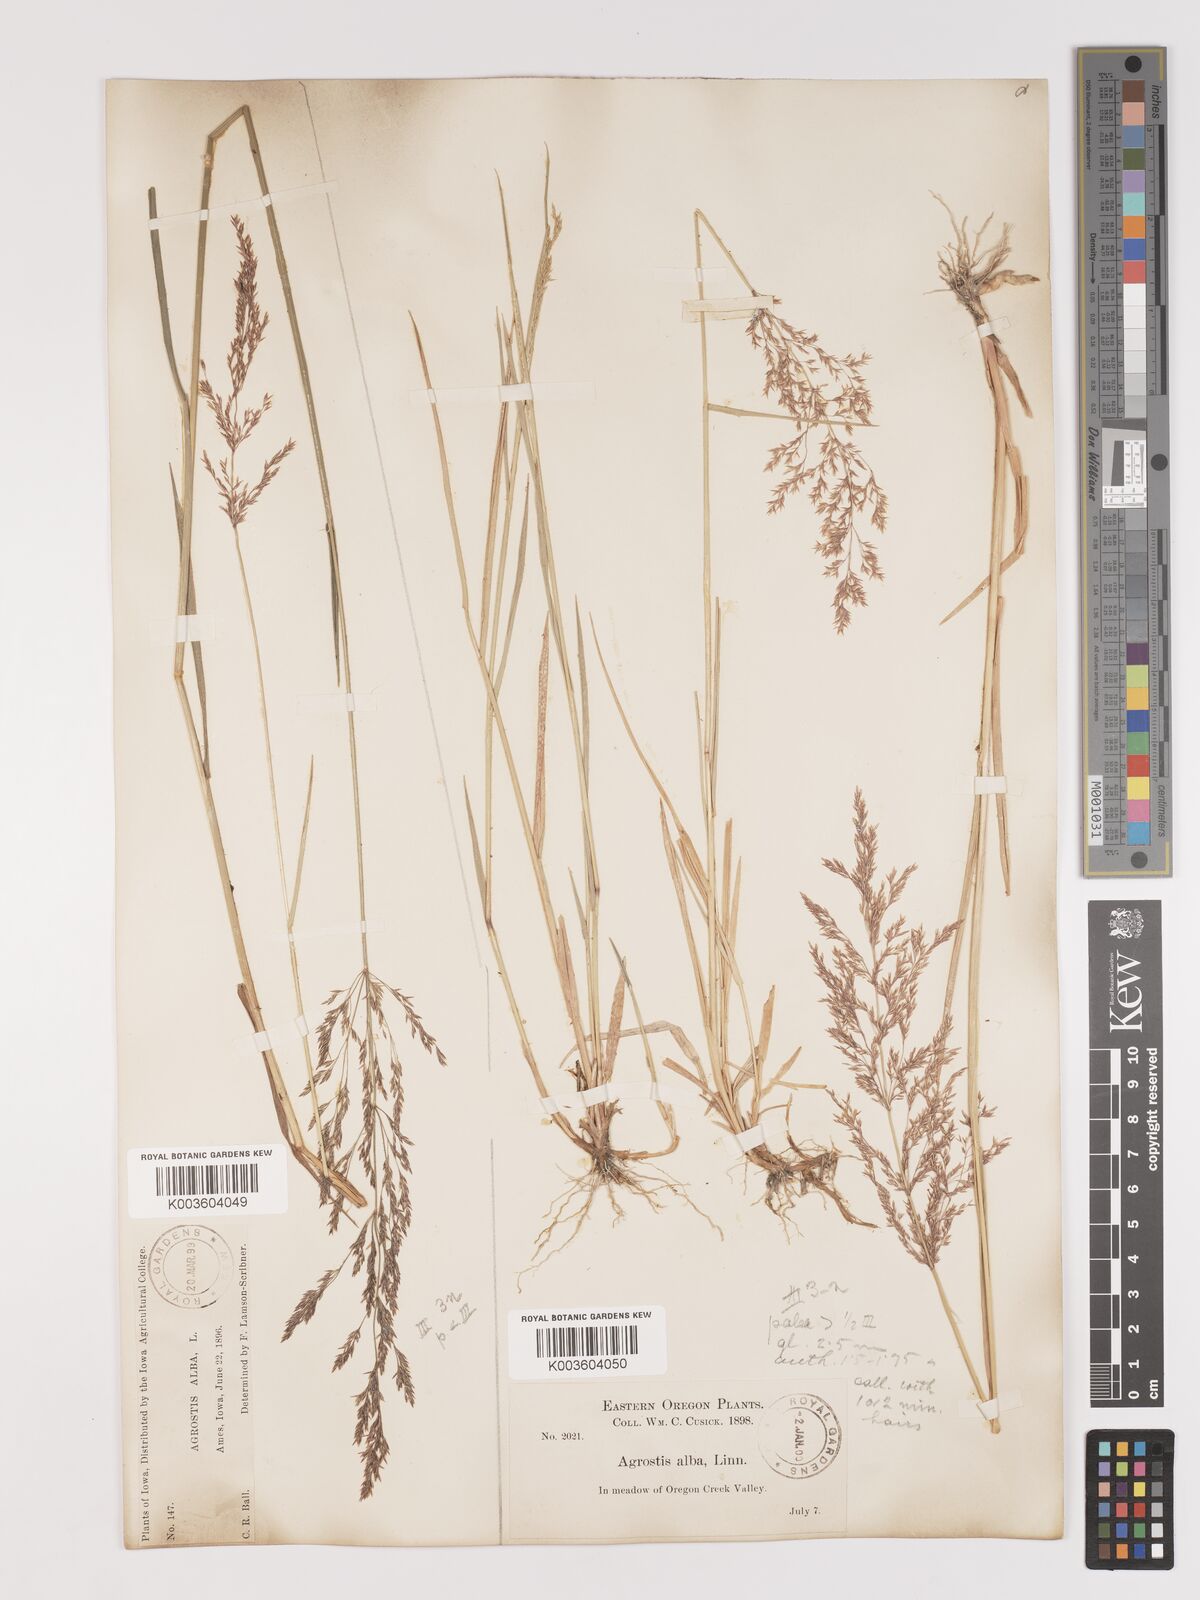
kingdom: Plantae
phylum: Tracheophyta
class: Liliopsida
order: Poales
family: Poaceae
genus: Agrostis
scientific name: Agrostis gigantea
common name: Black bent
